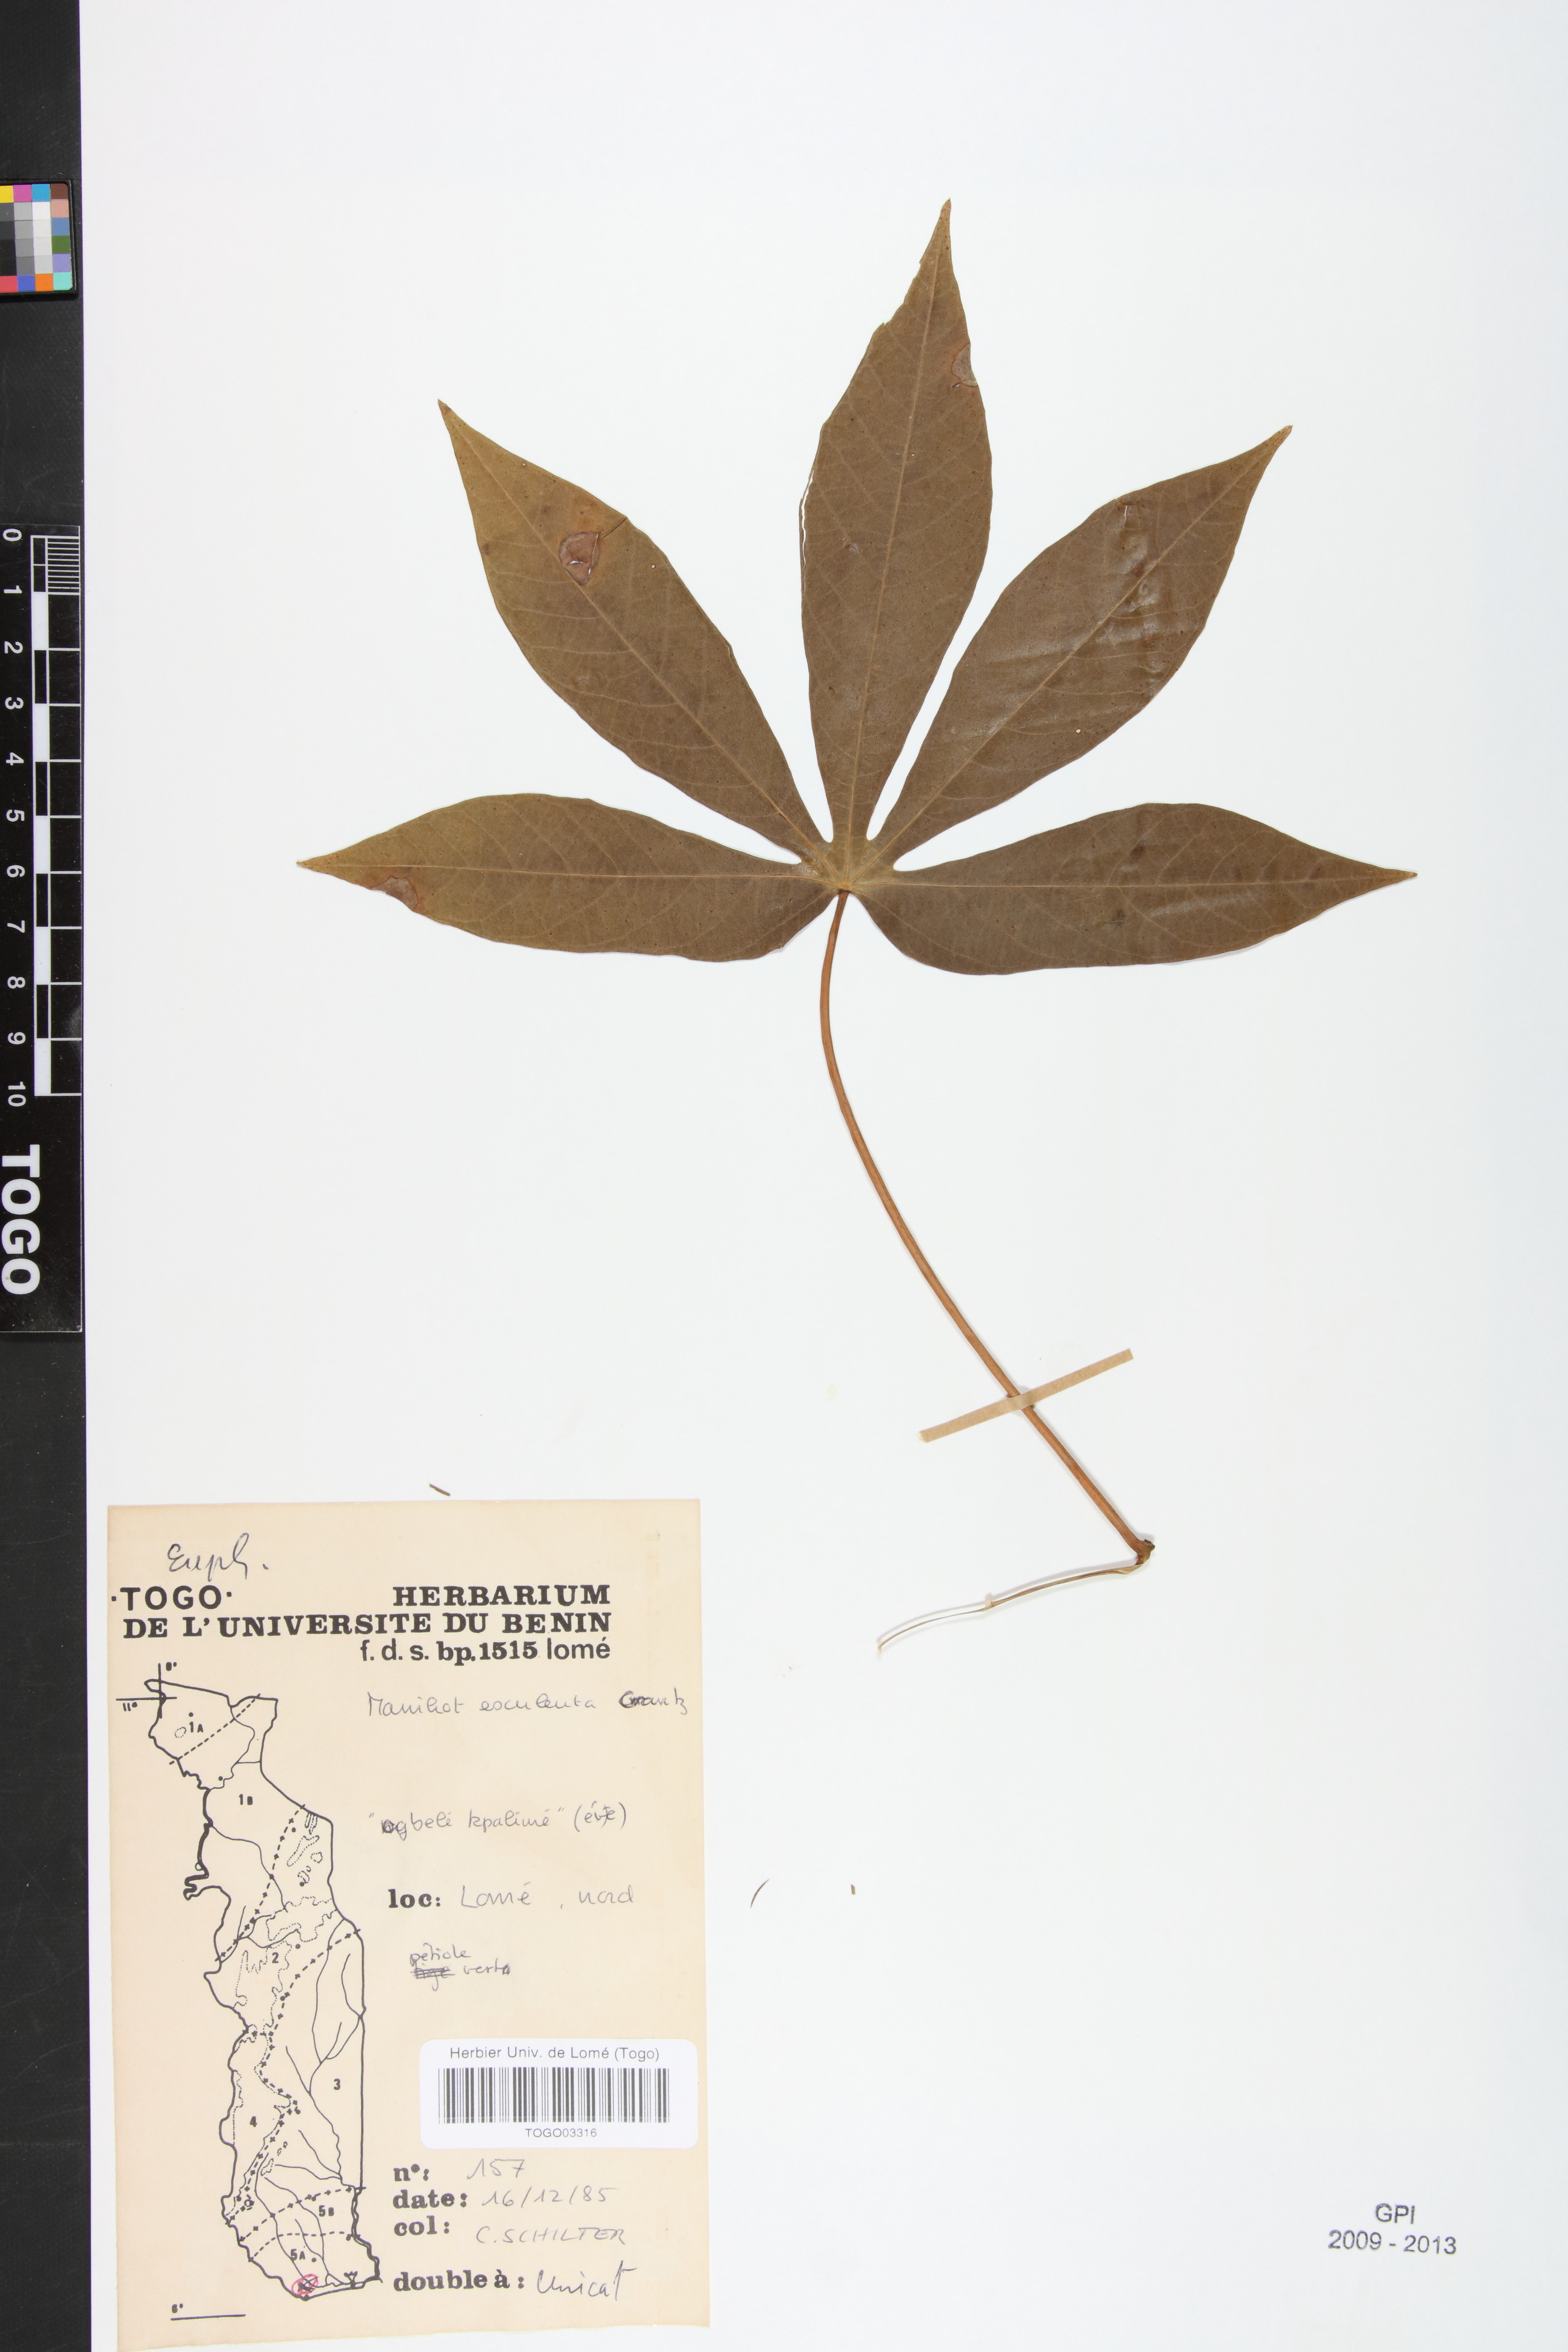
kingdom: Plantae
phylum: Tracheophyta
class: Magnoliopsida
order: Malpighiales
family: Euphorbiaceae
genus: Manihot
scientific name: Manihot esculenta
